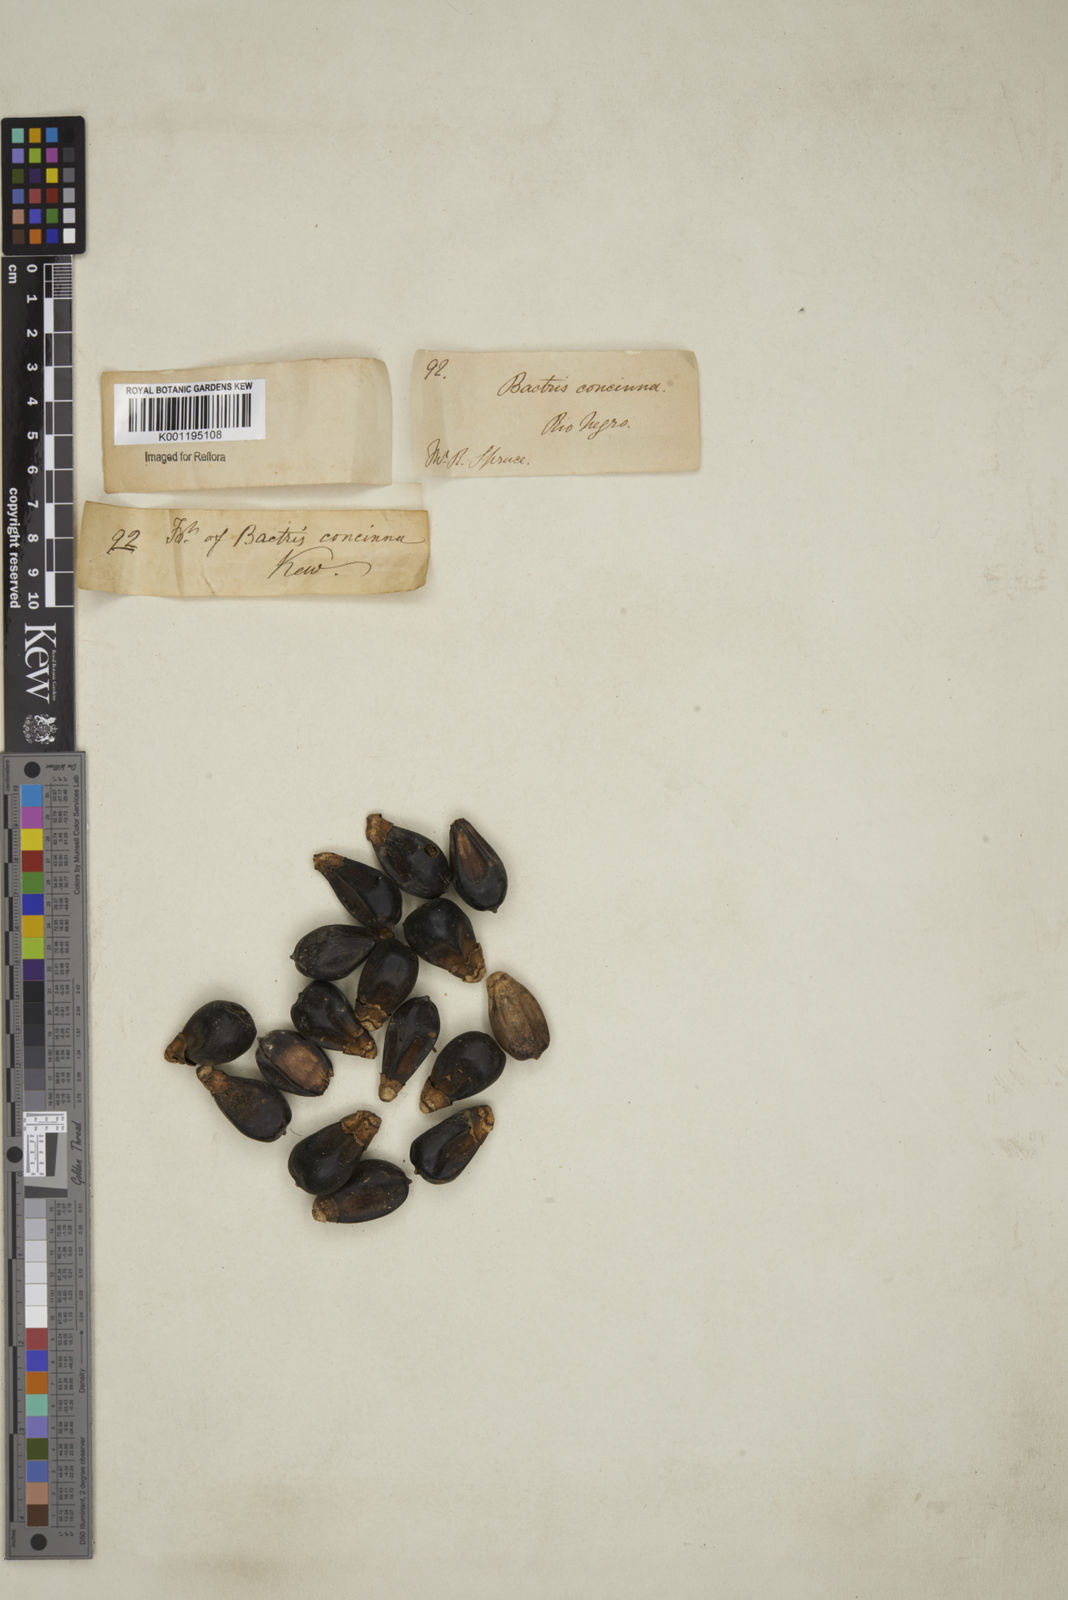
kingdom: Plantae
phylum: Tracheophyta
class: Liliopsida
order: Arecales
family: Arecaceae
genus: Bactris
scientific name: Bactris concinna
